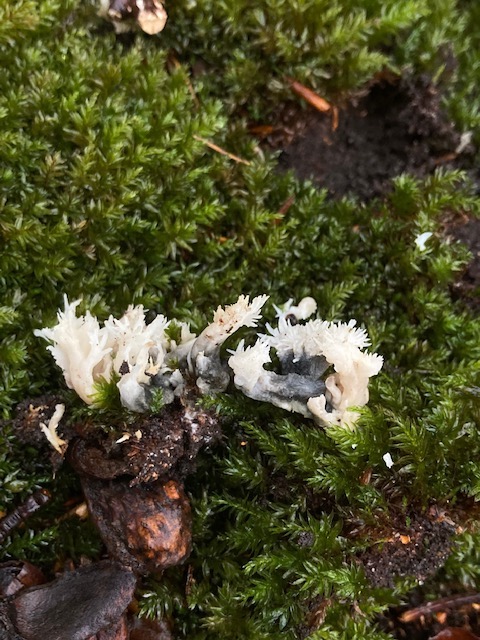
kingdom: Fungi
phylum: Ascomycota
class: Sordariomycetes
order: Sordariales
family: Helminthosphaeriaceae
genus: Helminthosphaeria
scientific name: Helminthosphaeria clavariarum
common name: trold-svampesnyltekerne
